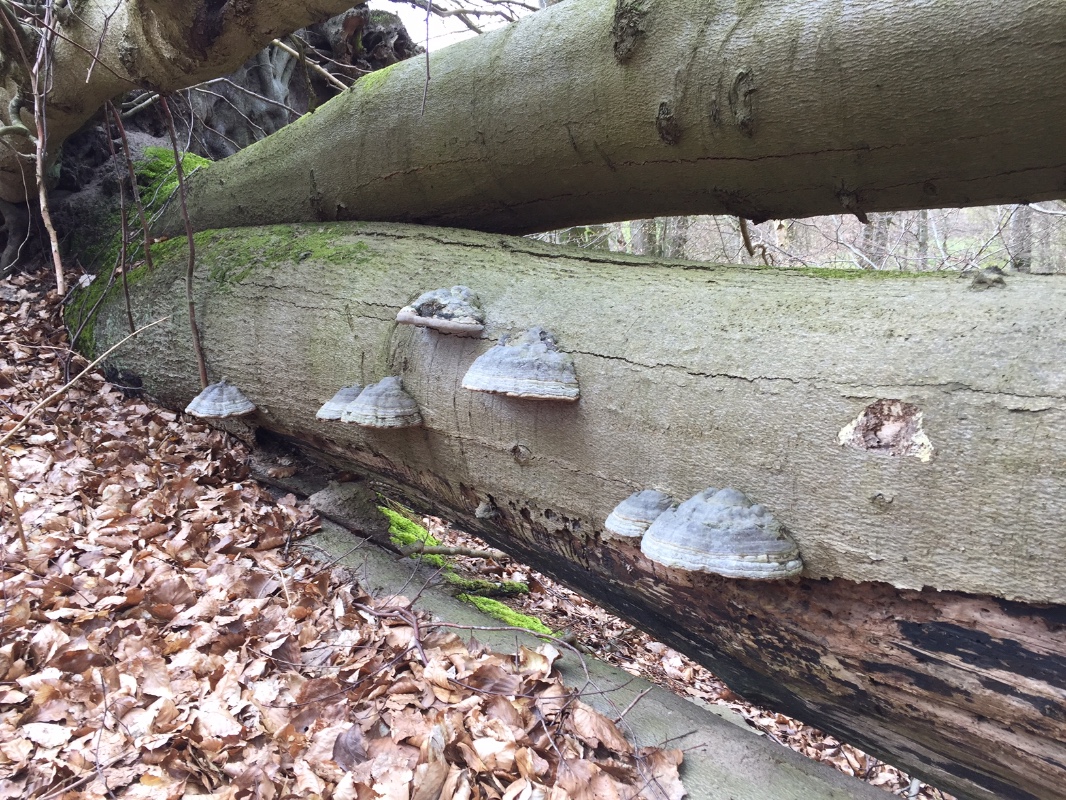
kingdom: Fungi
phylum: Basidiomycota
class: Agaricomycetes
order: Polyporales
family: Polyporaceae
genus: Fomes
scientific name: Fomes fomentarius
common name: tøndersvamp
